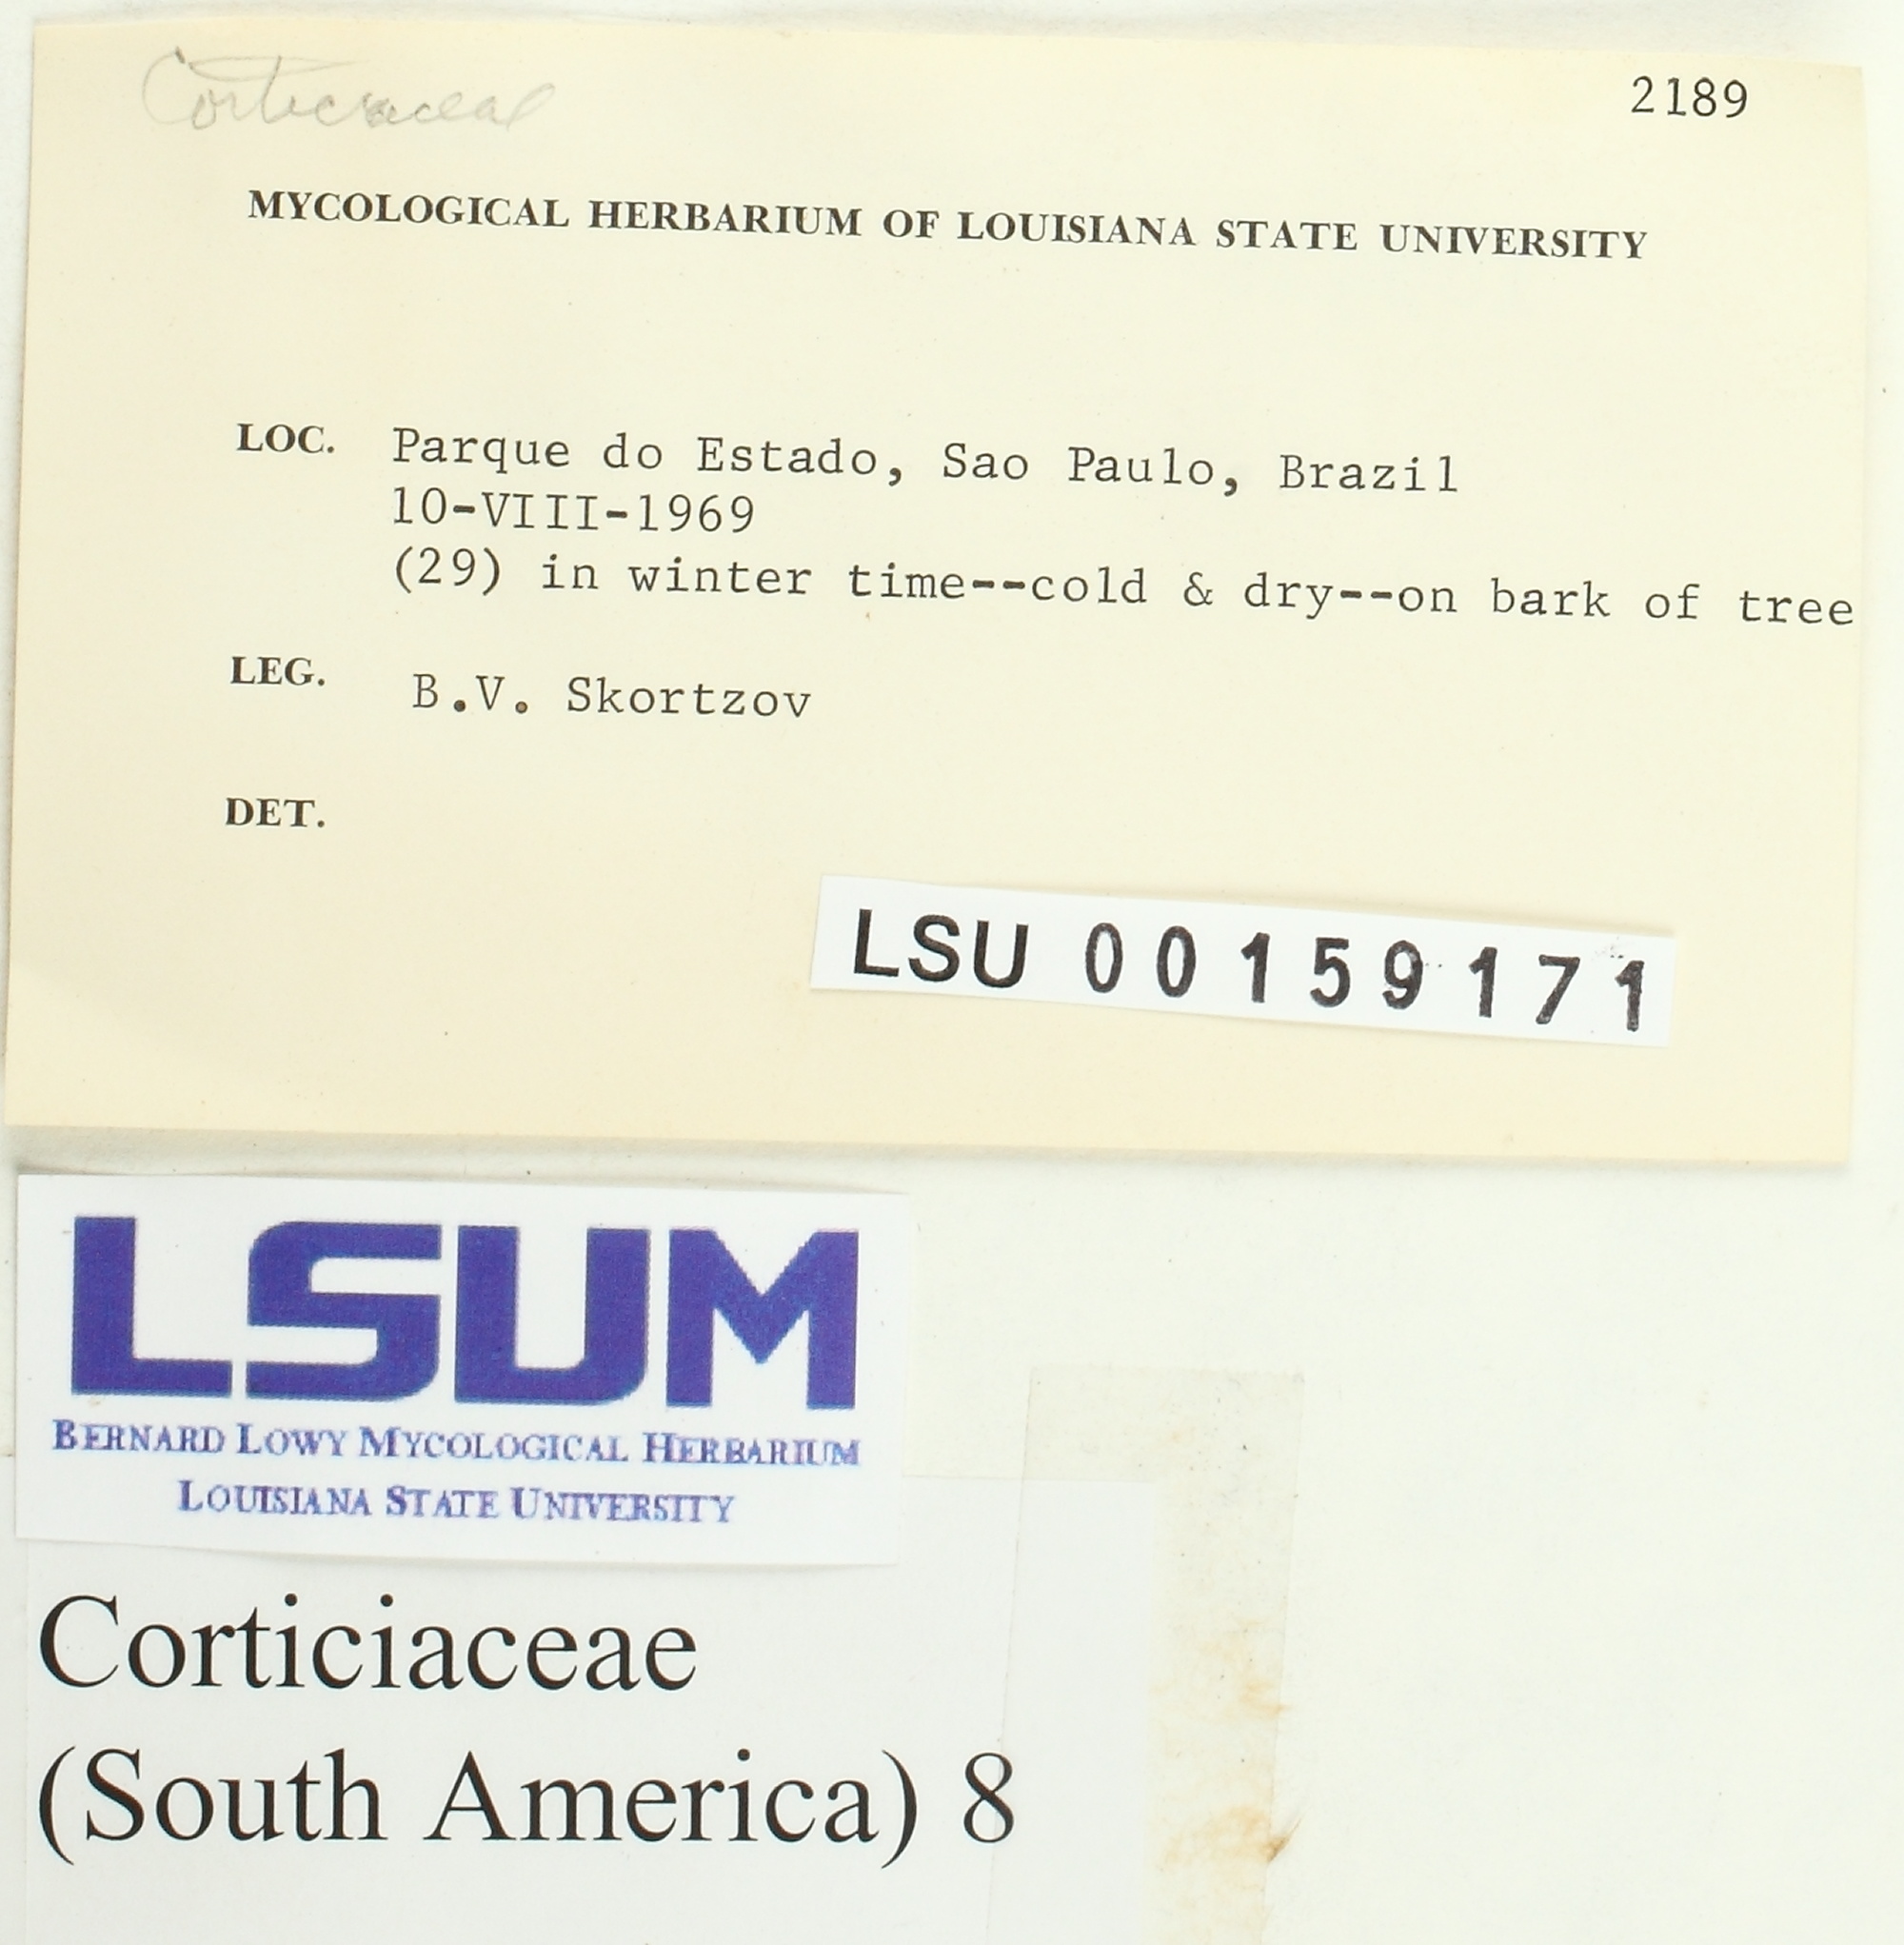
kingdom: Fungi
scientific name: Fungi
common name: Fungi
